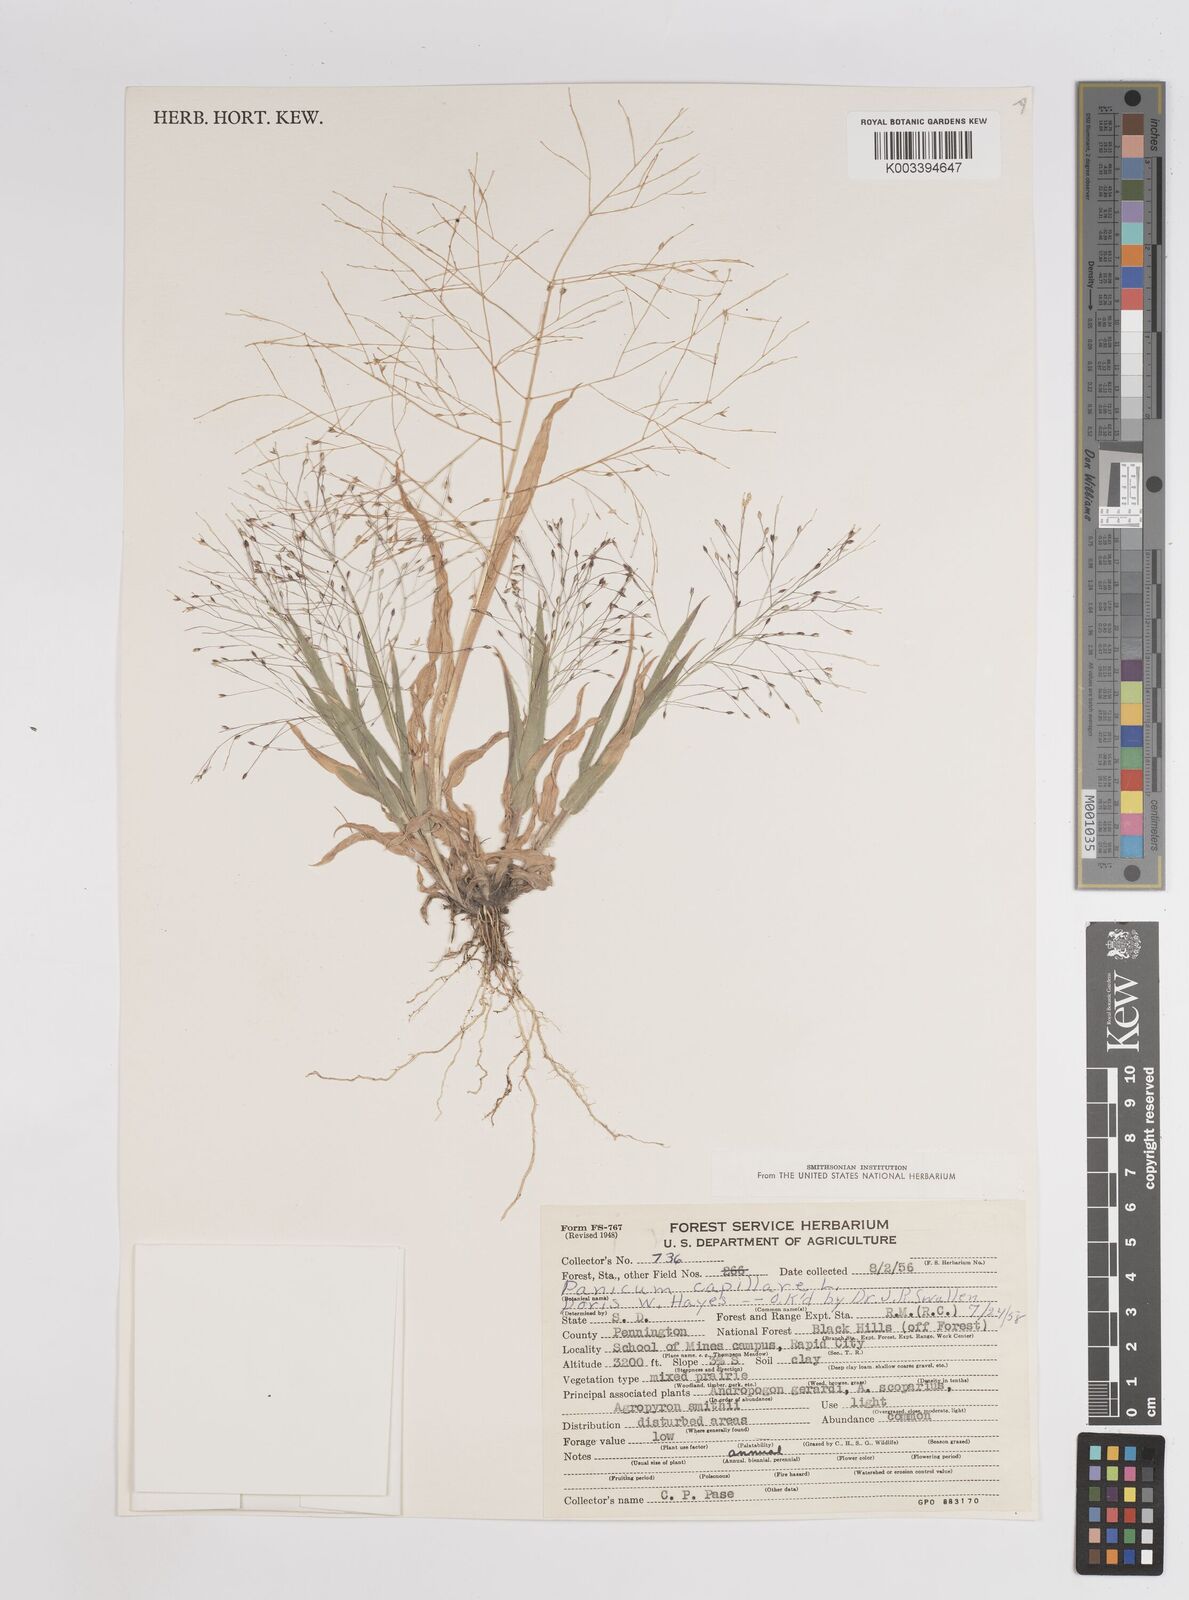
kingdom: Plantae
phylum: Tracheophyta
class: Liliopsida
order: Poales
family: Poaceae
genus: Panicum
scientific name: Panicum capillare
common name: Witch-grass
